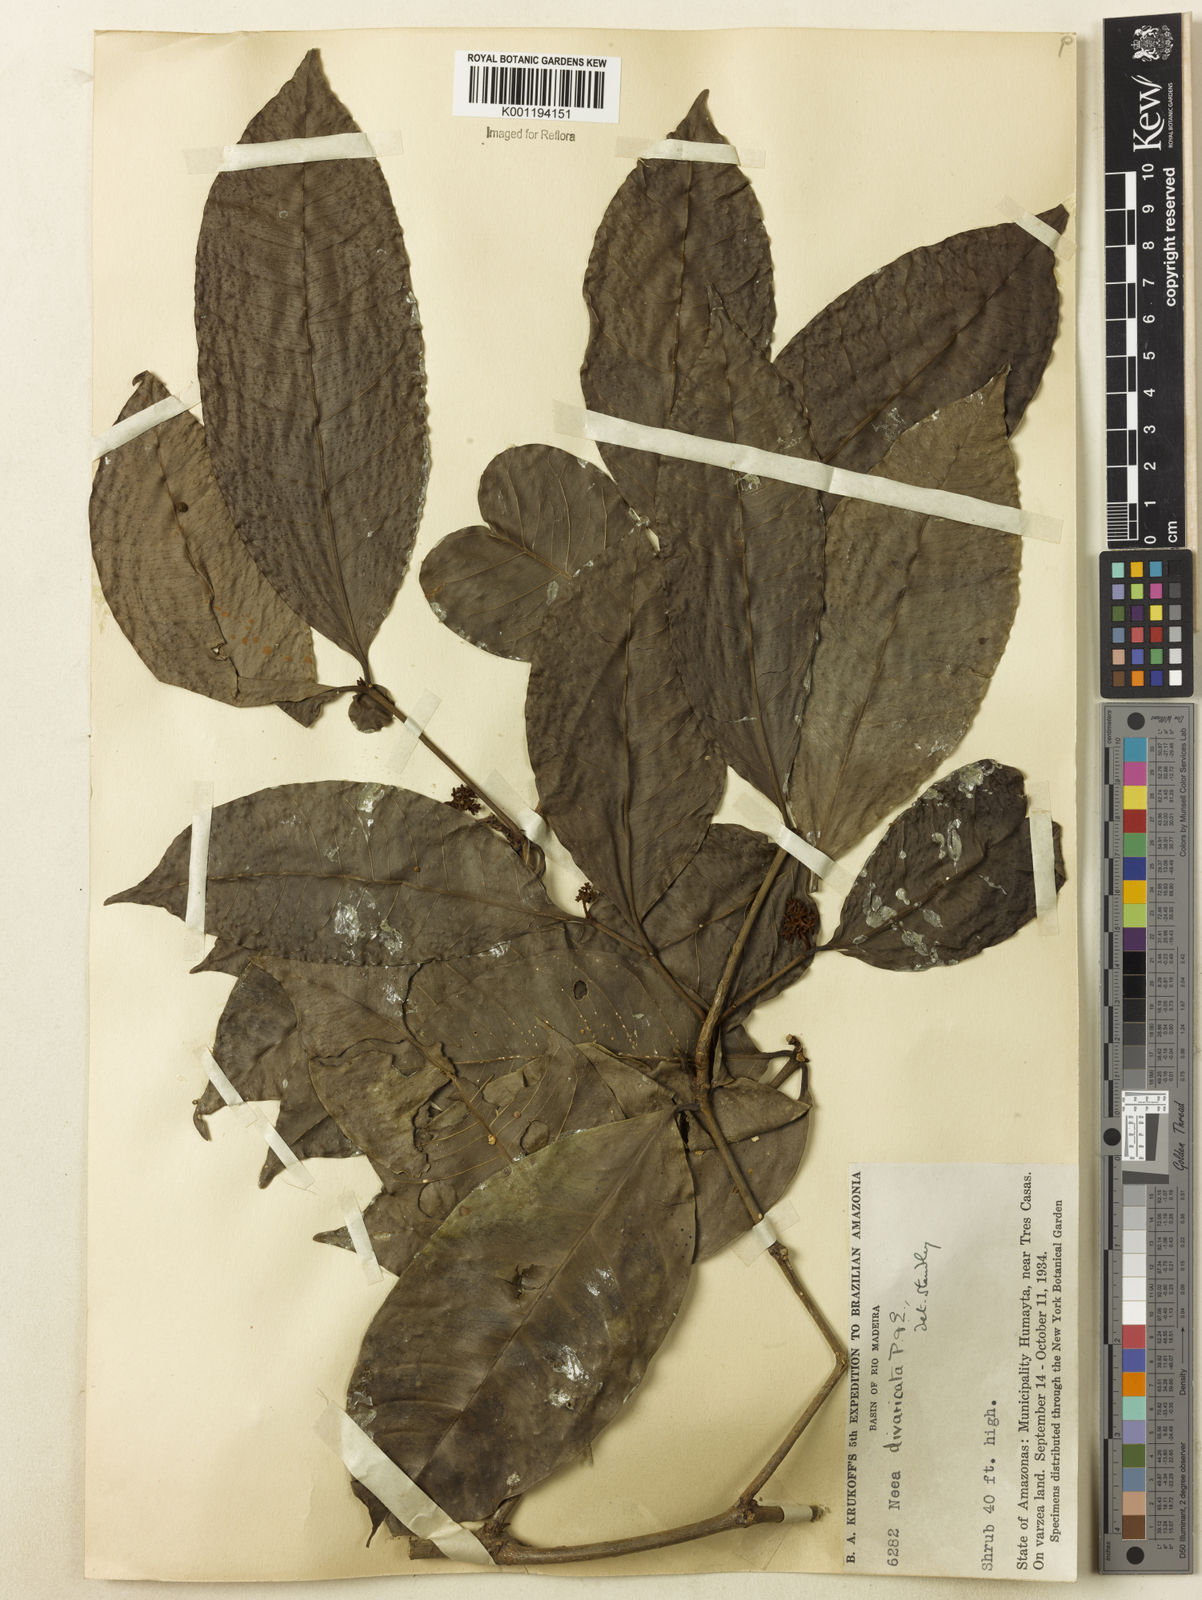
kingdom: Plantae
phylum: Tracheophyta
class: Magnoliopsida
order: Caryophyllales
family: Nyctaginaceae
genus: Neea
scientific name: Neea divaricata
